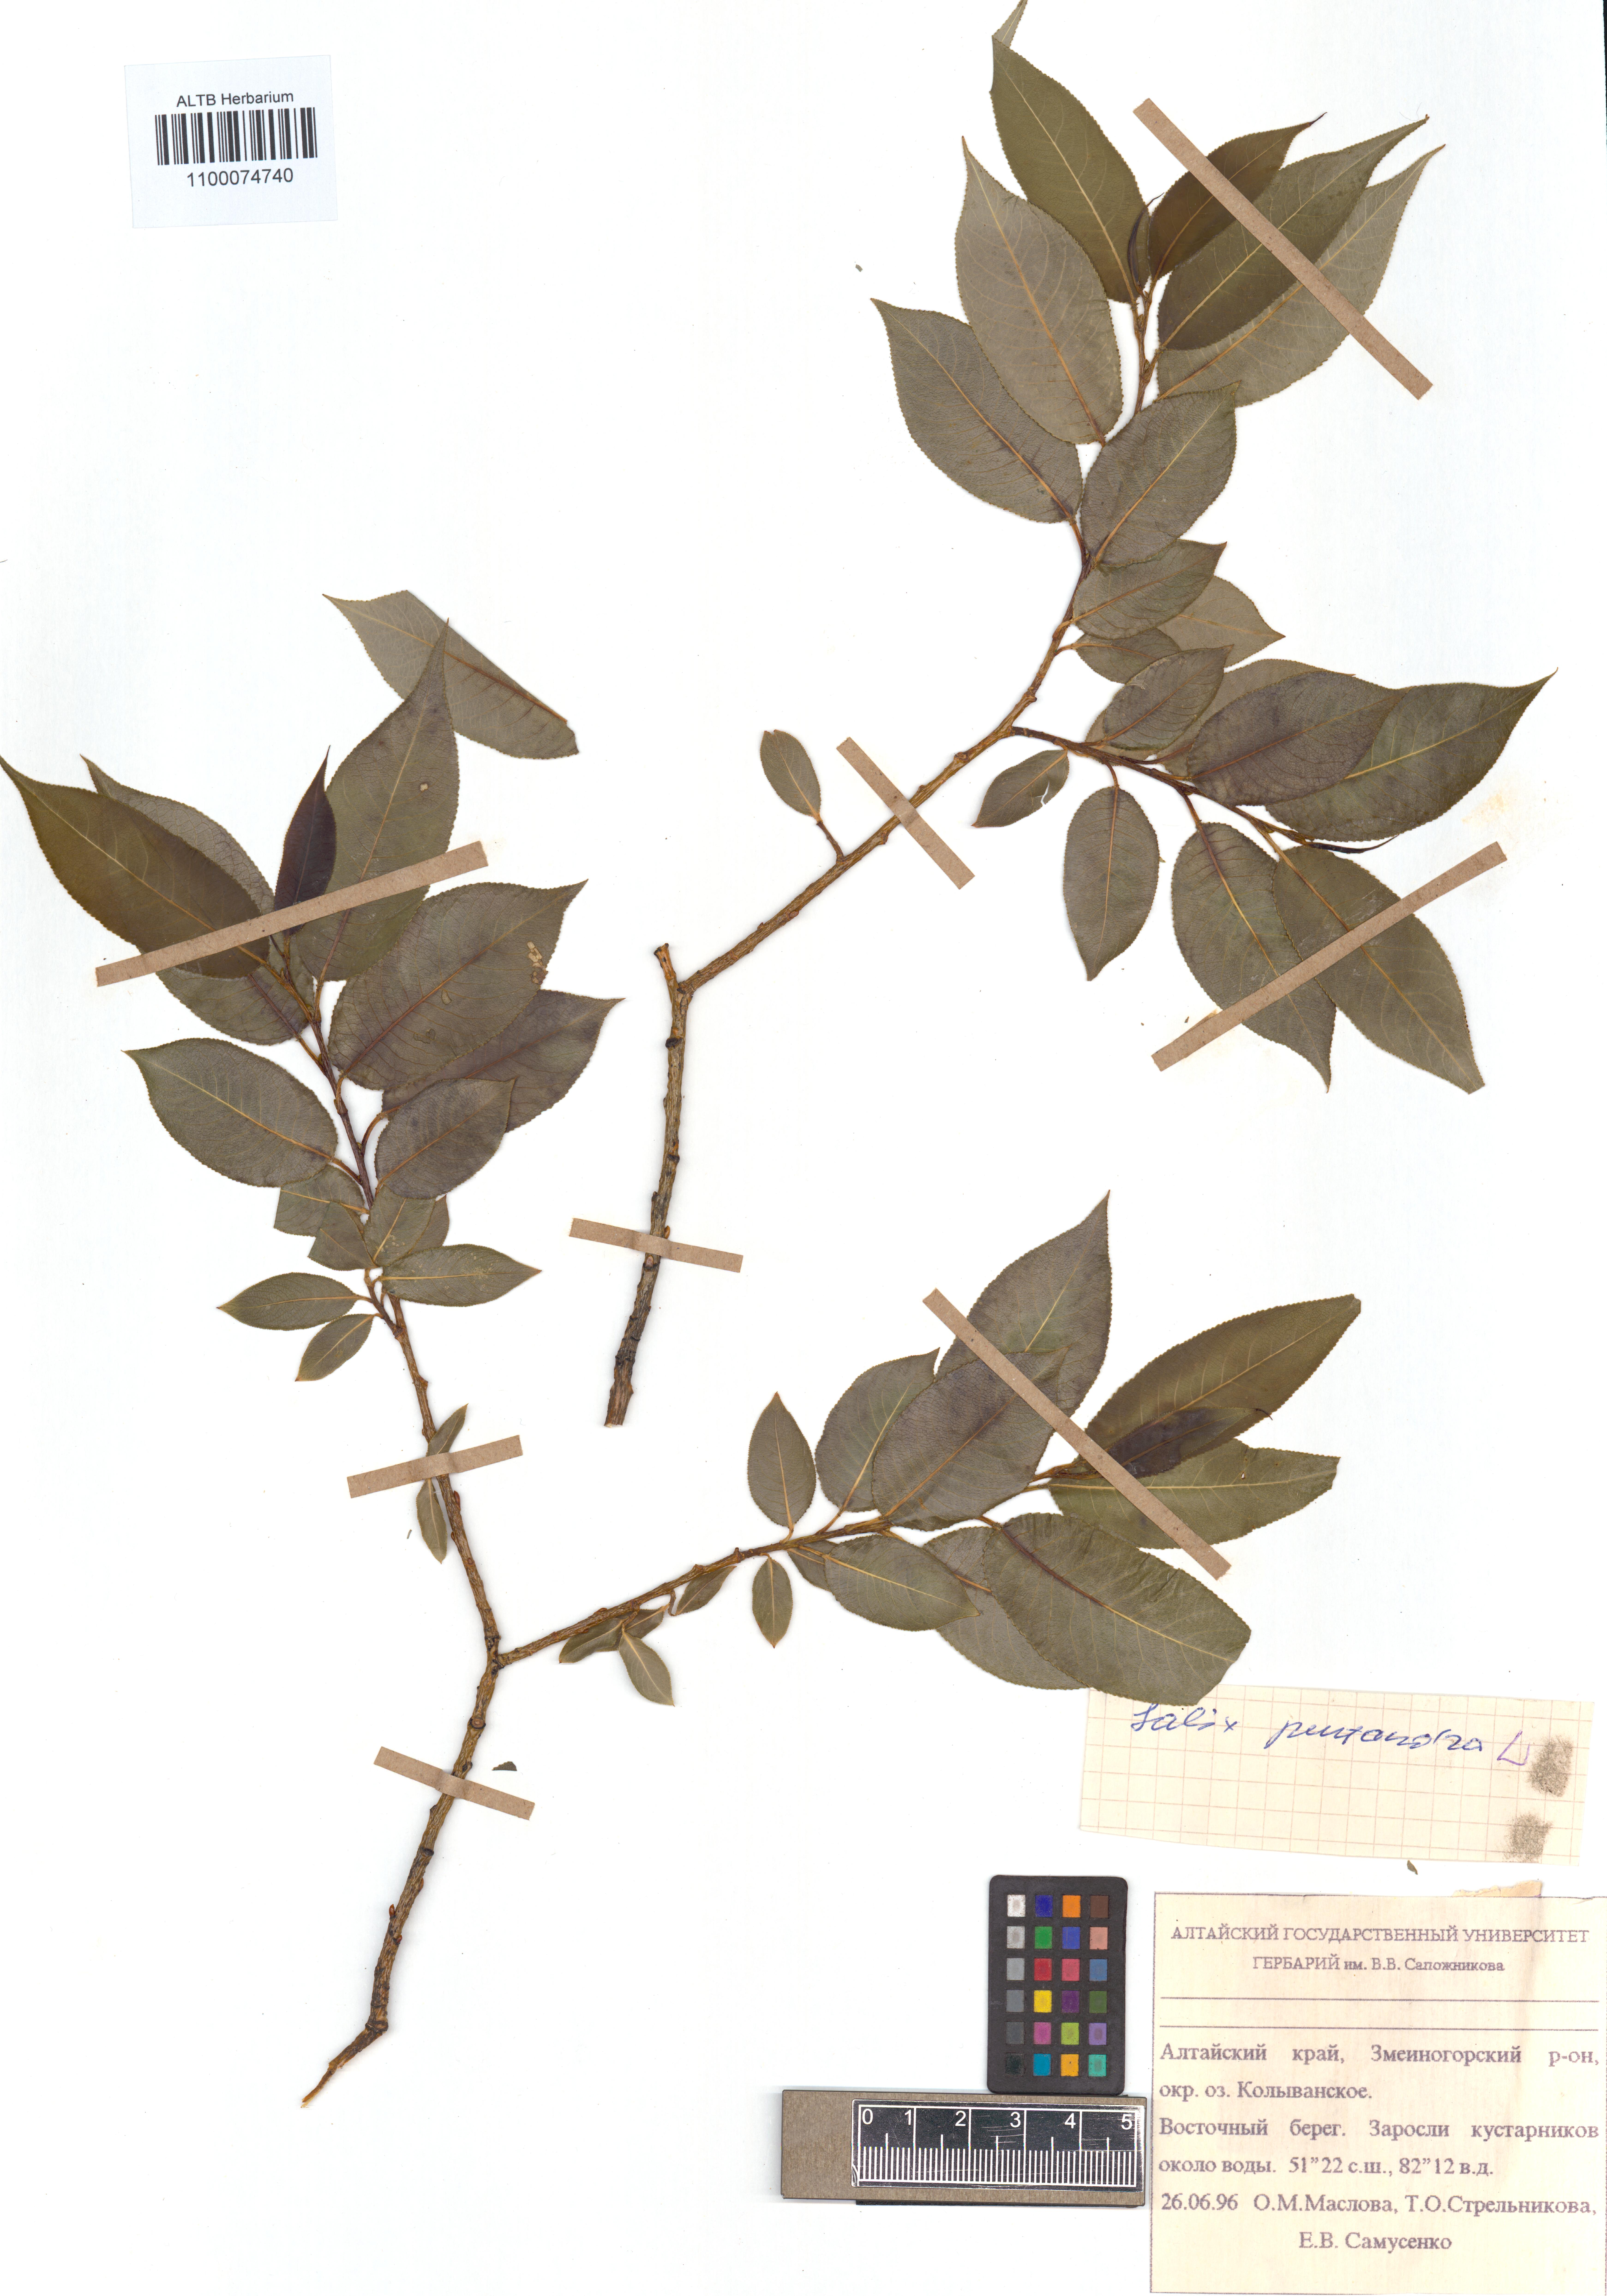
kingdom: Plantae
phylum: Tracheophyta
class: Magnoliopsida
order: Malpighiales
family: Salicaceae
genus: Salix
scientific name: Salix pentandra
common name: Bay willow
